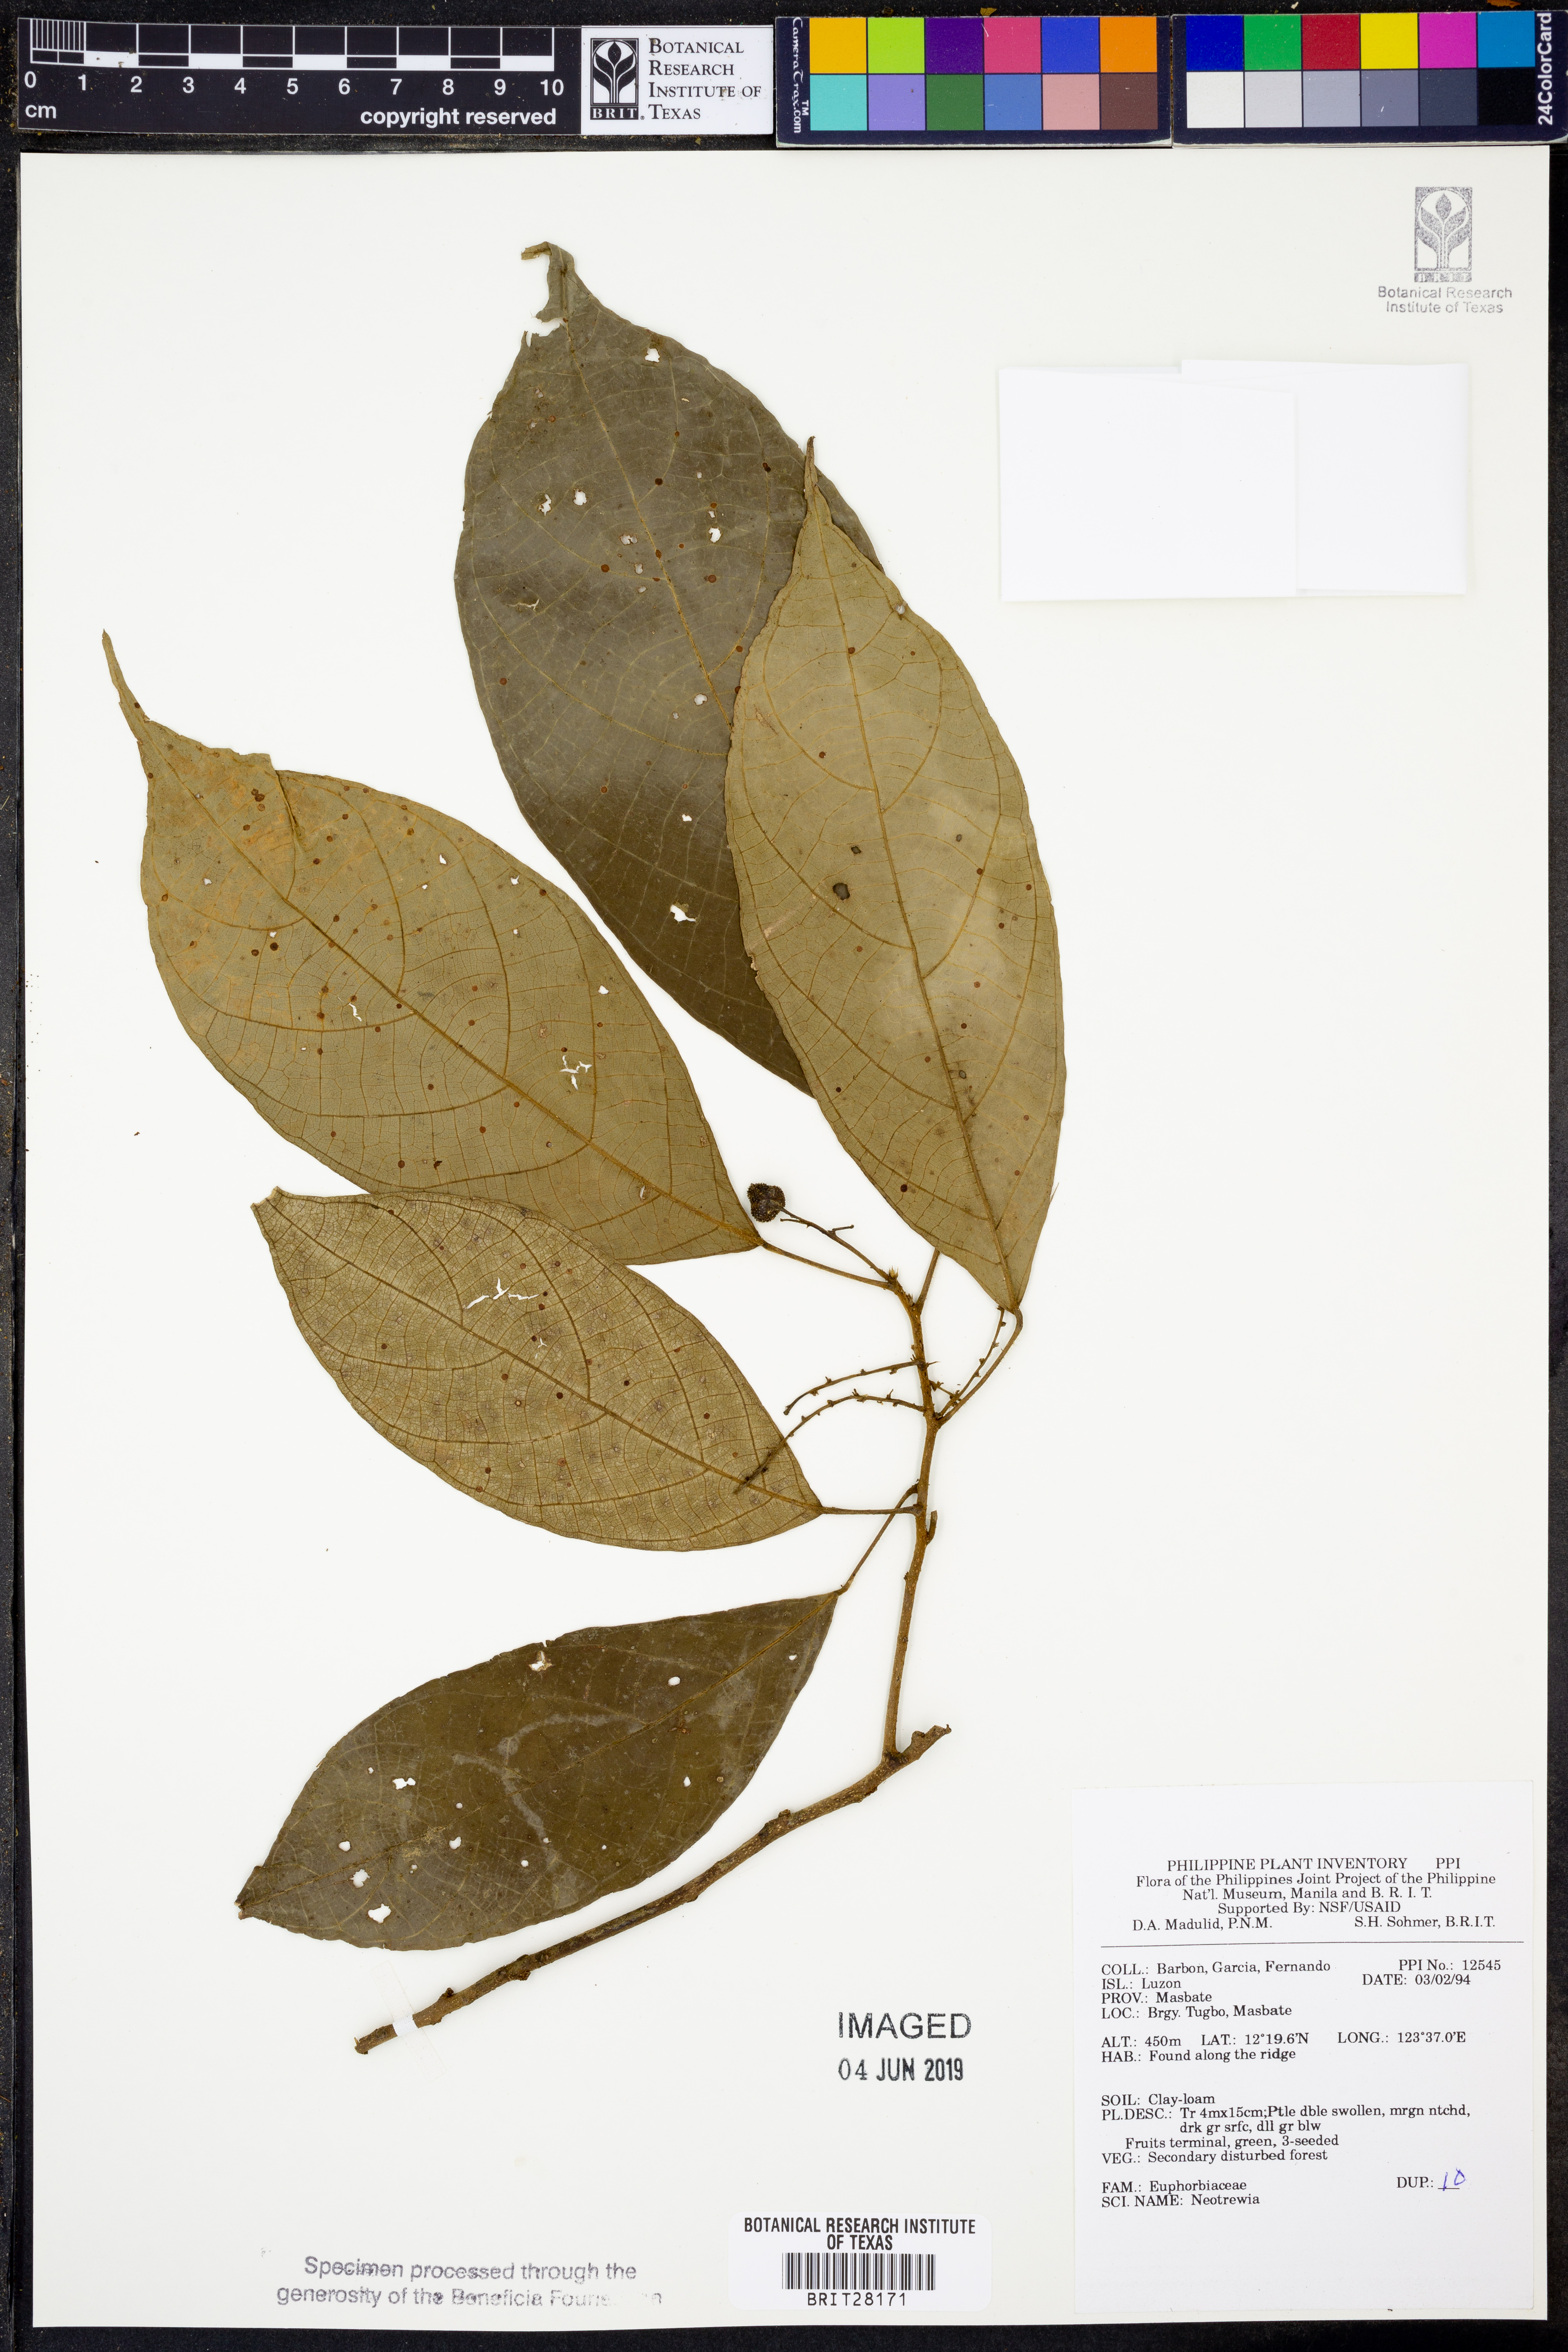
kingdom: Plantae
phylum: Tracheophyta
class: Magnoliopsida
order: Malpighiales
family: Euphorbiaceae
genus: Mallotus
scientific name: Mallotus
